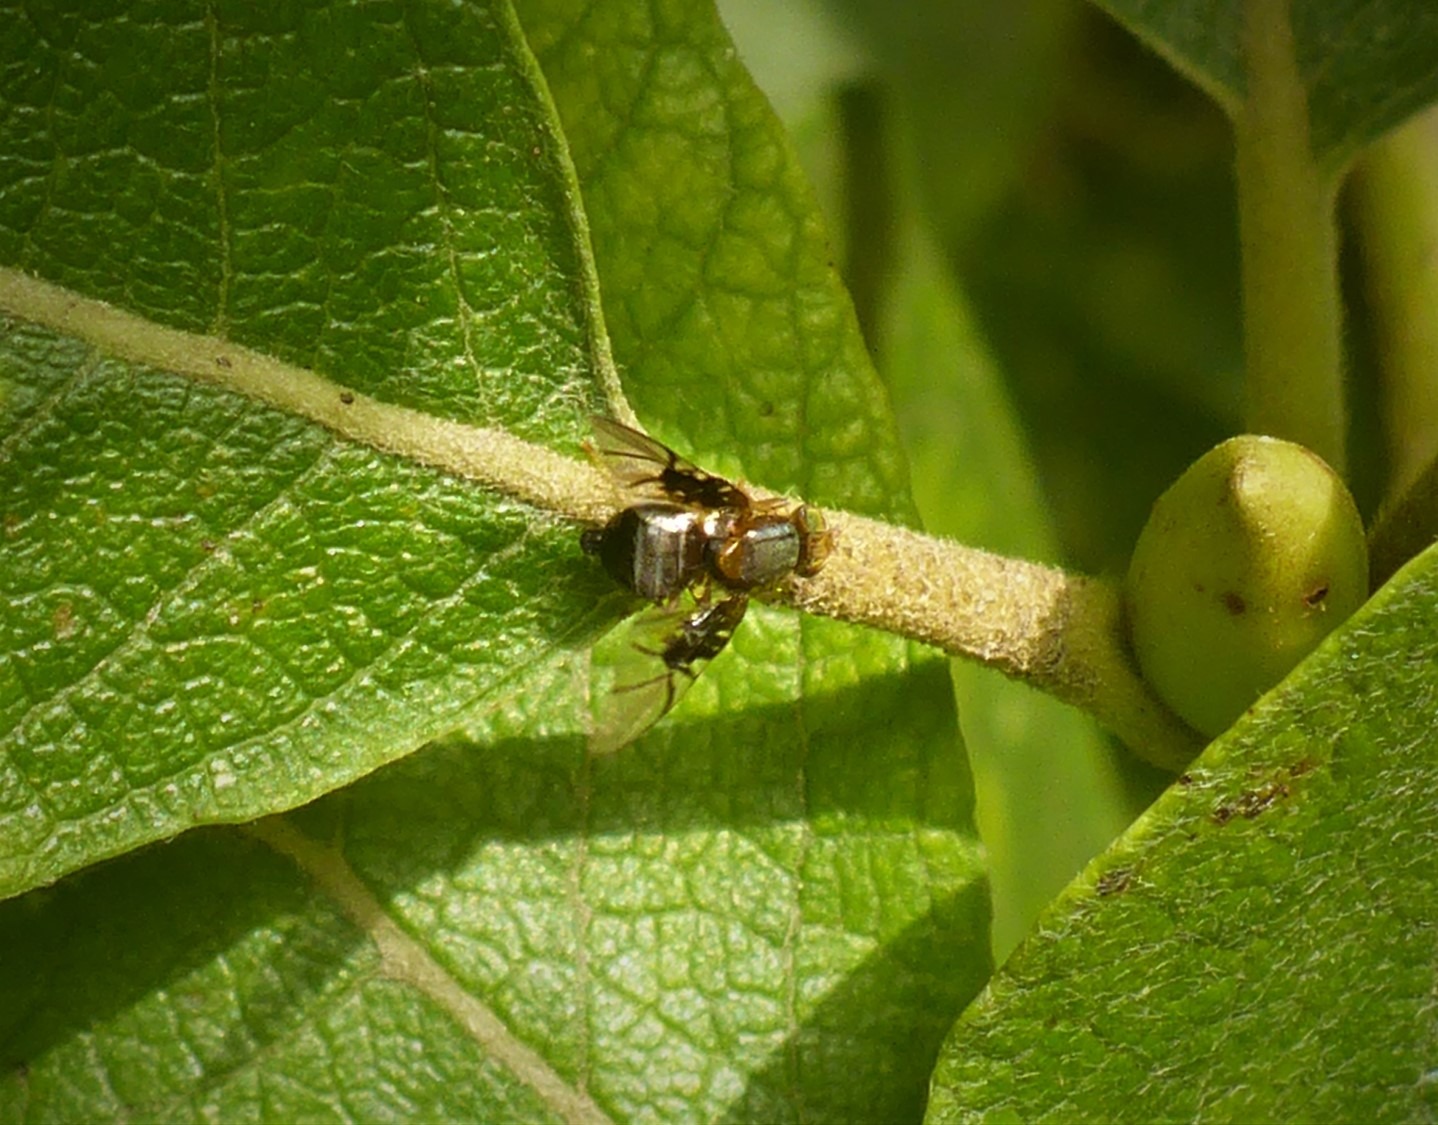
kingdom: Animalia
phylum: Arthropoda
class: Insecta
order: Diptera
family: Tephritidae
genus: Anomoia
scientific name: Anomoia purmunda
